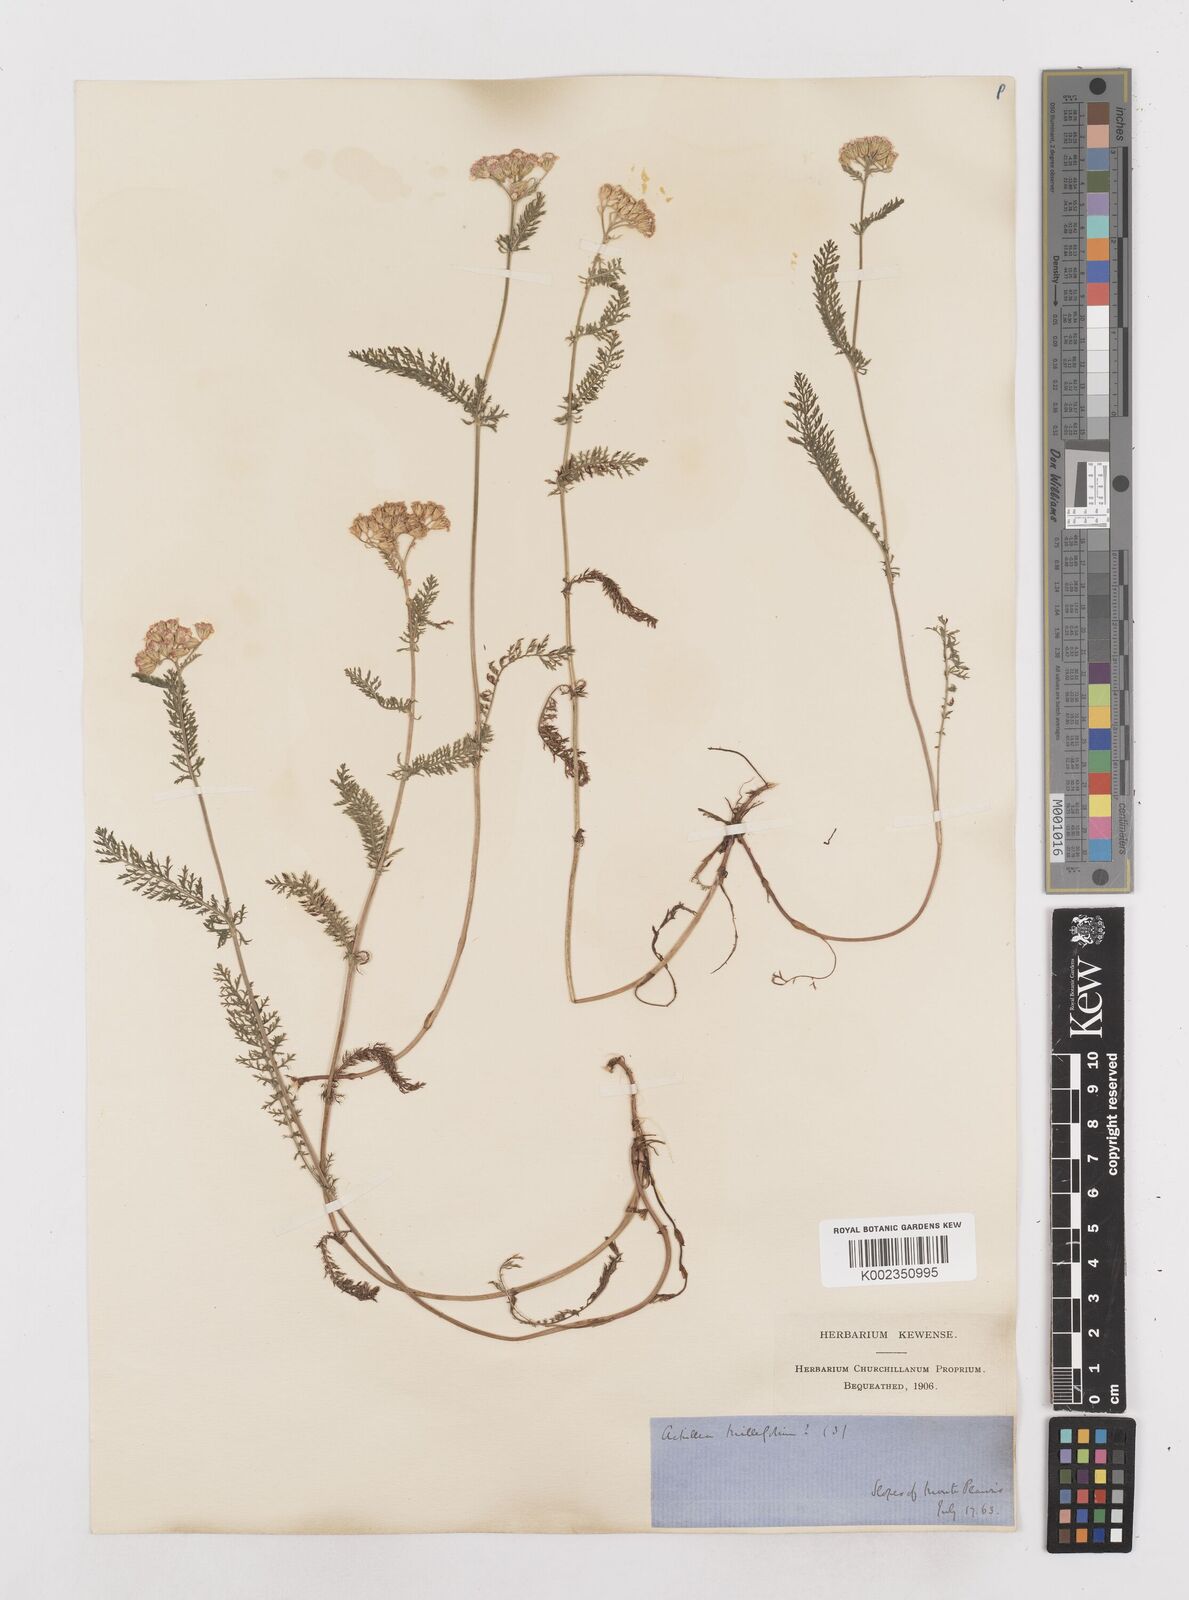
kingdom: Plantae
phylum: Tracheophyta
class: Magnoliopsida
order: Asterales
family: Asteraceae
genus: Achillea
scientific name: Achillea millefolium
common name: Yarrow
